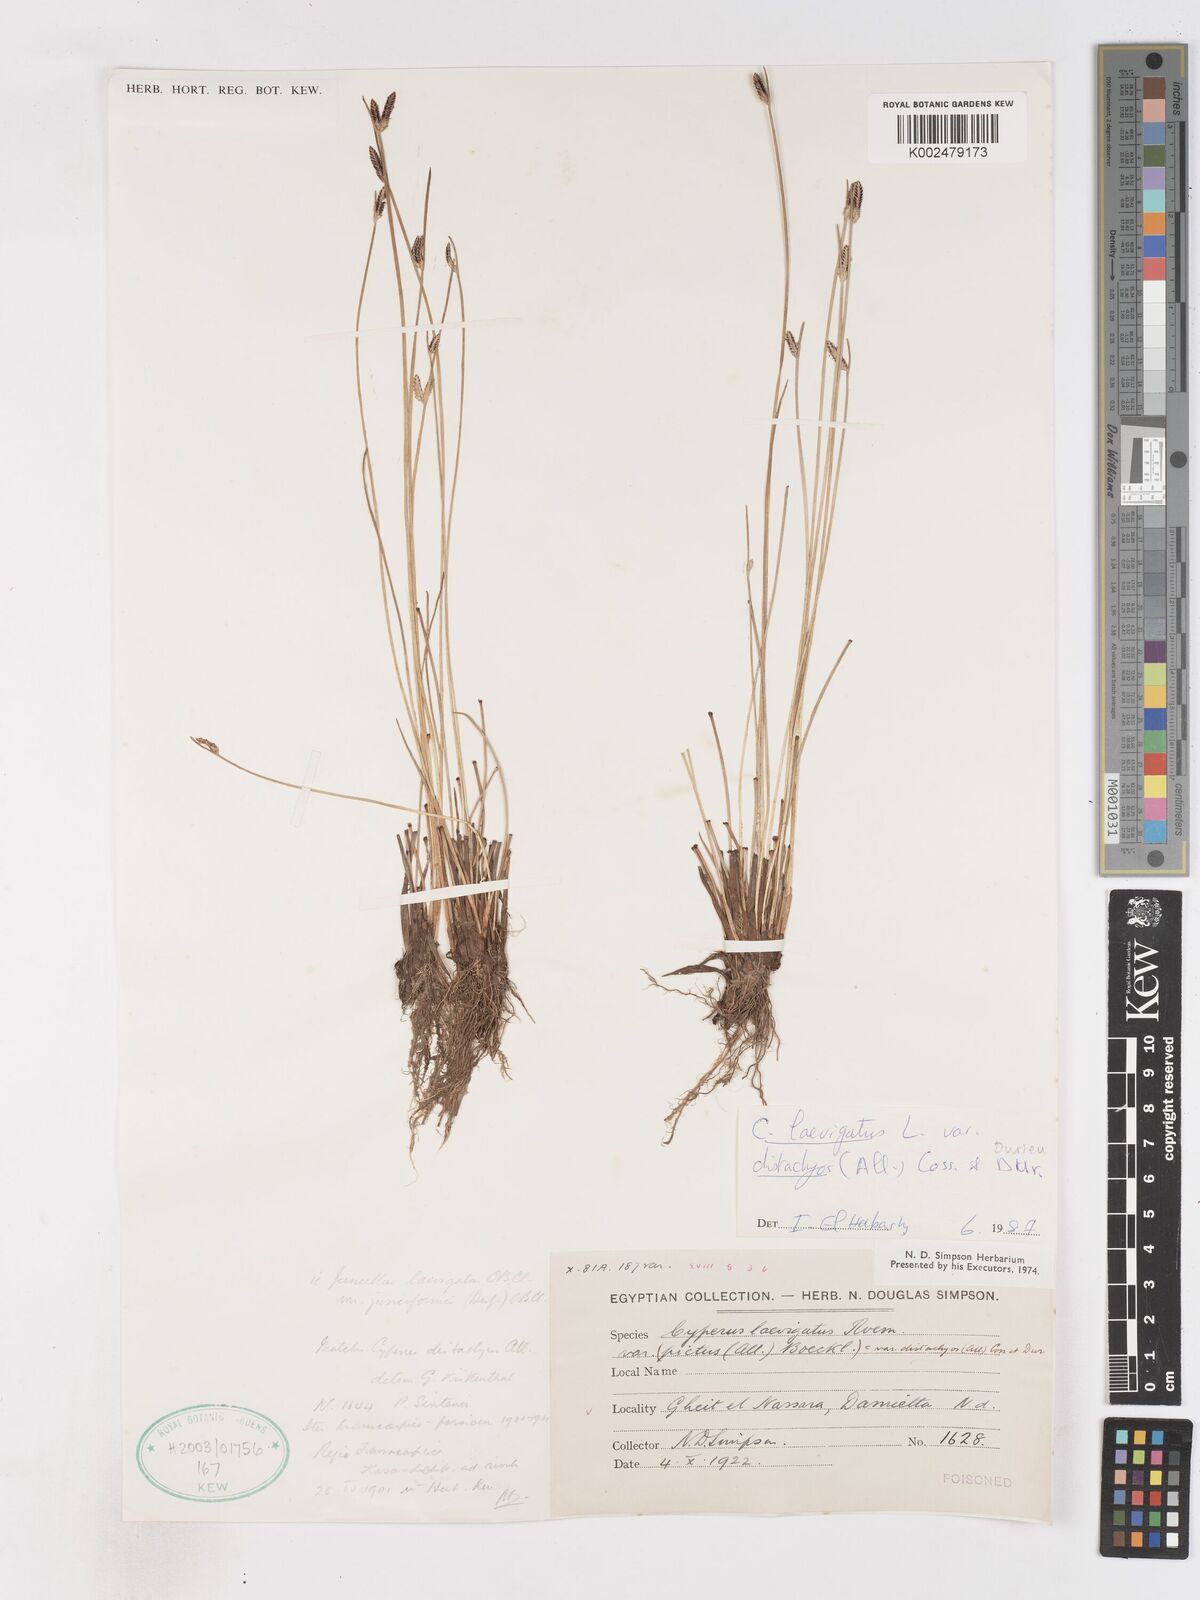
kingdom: Plantae
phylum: Tracheophyta
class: Liliopsida
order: Poales
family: Cyperaceae
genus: Cyperus
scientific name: Cyperus laevigatus
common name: Smooth flat sedge
